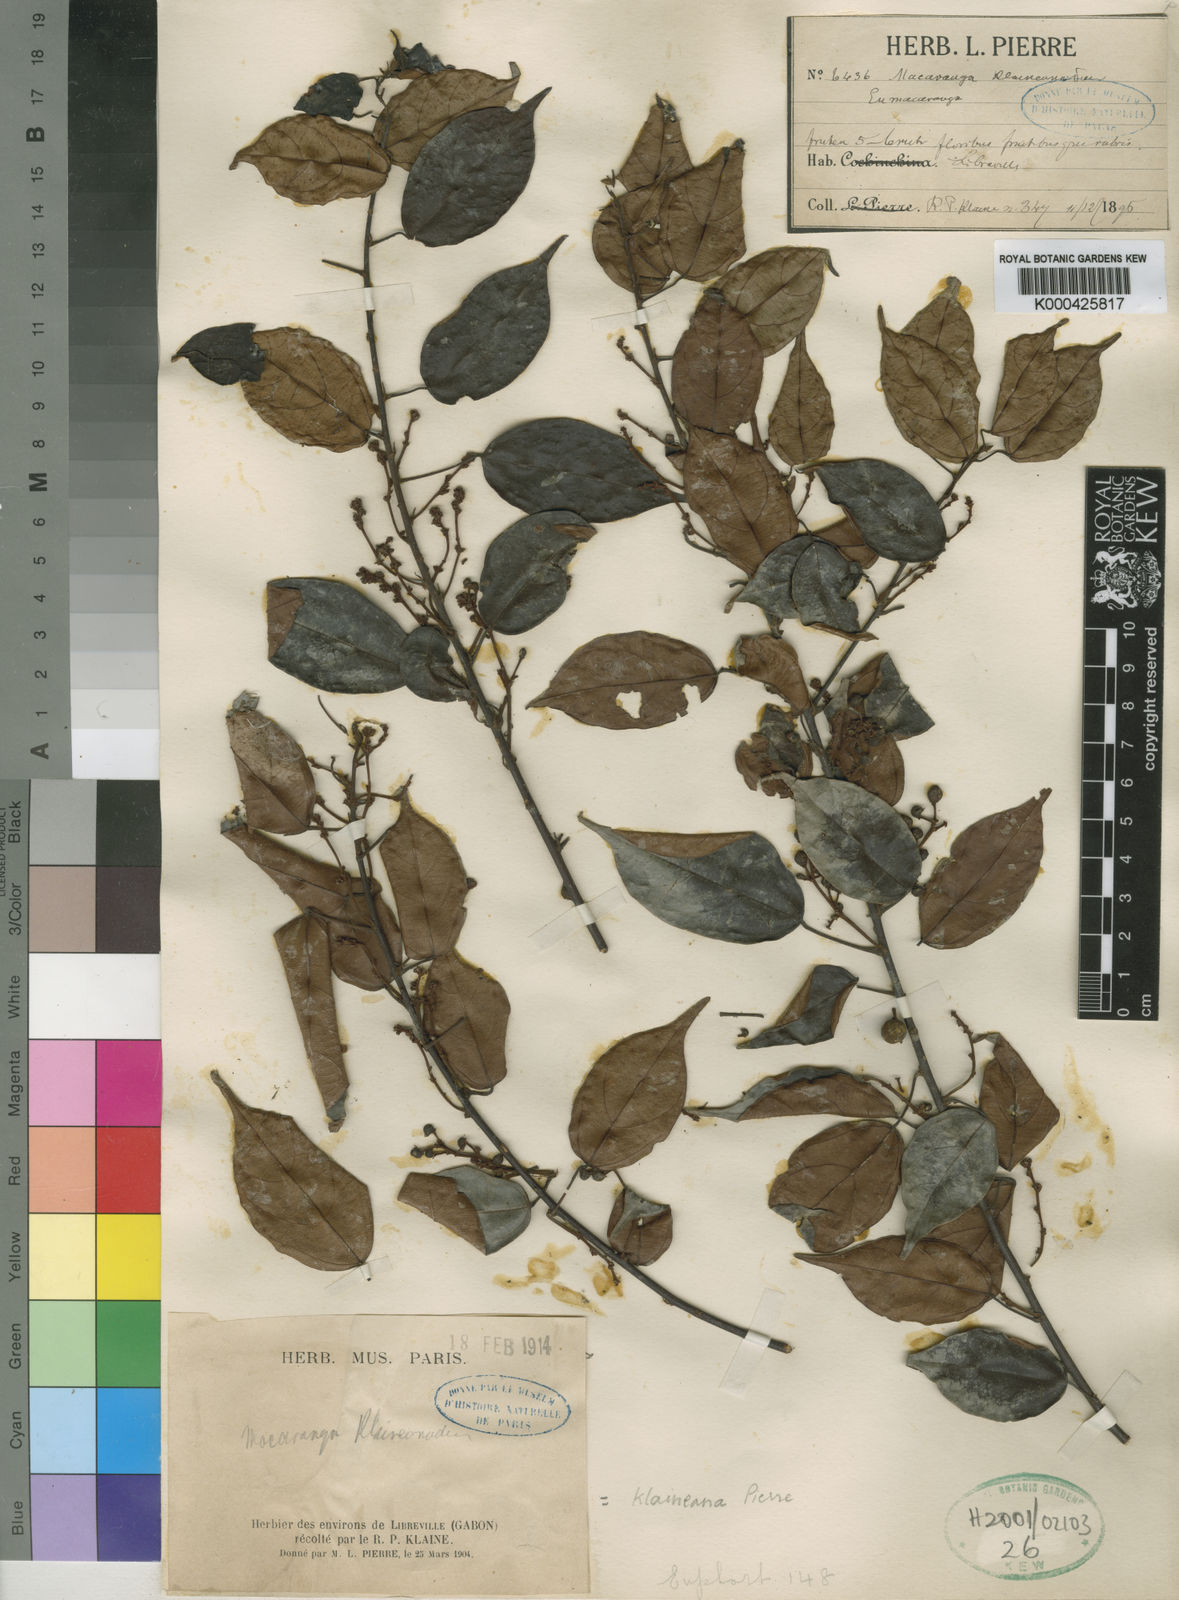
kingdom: Plantae
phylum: Tracheophyta
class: Magnoliopsida
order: Malpighiales
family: Euphorbiaceae
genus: Macaranga
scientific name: Macaranga klaineana
